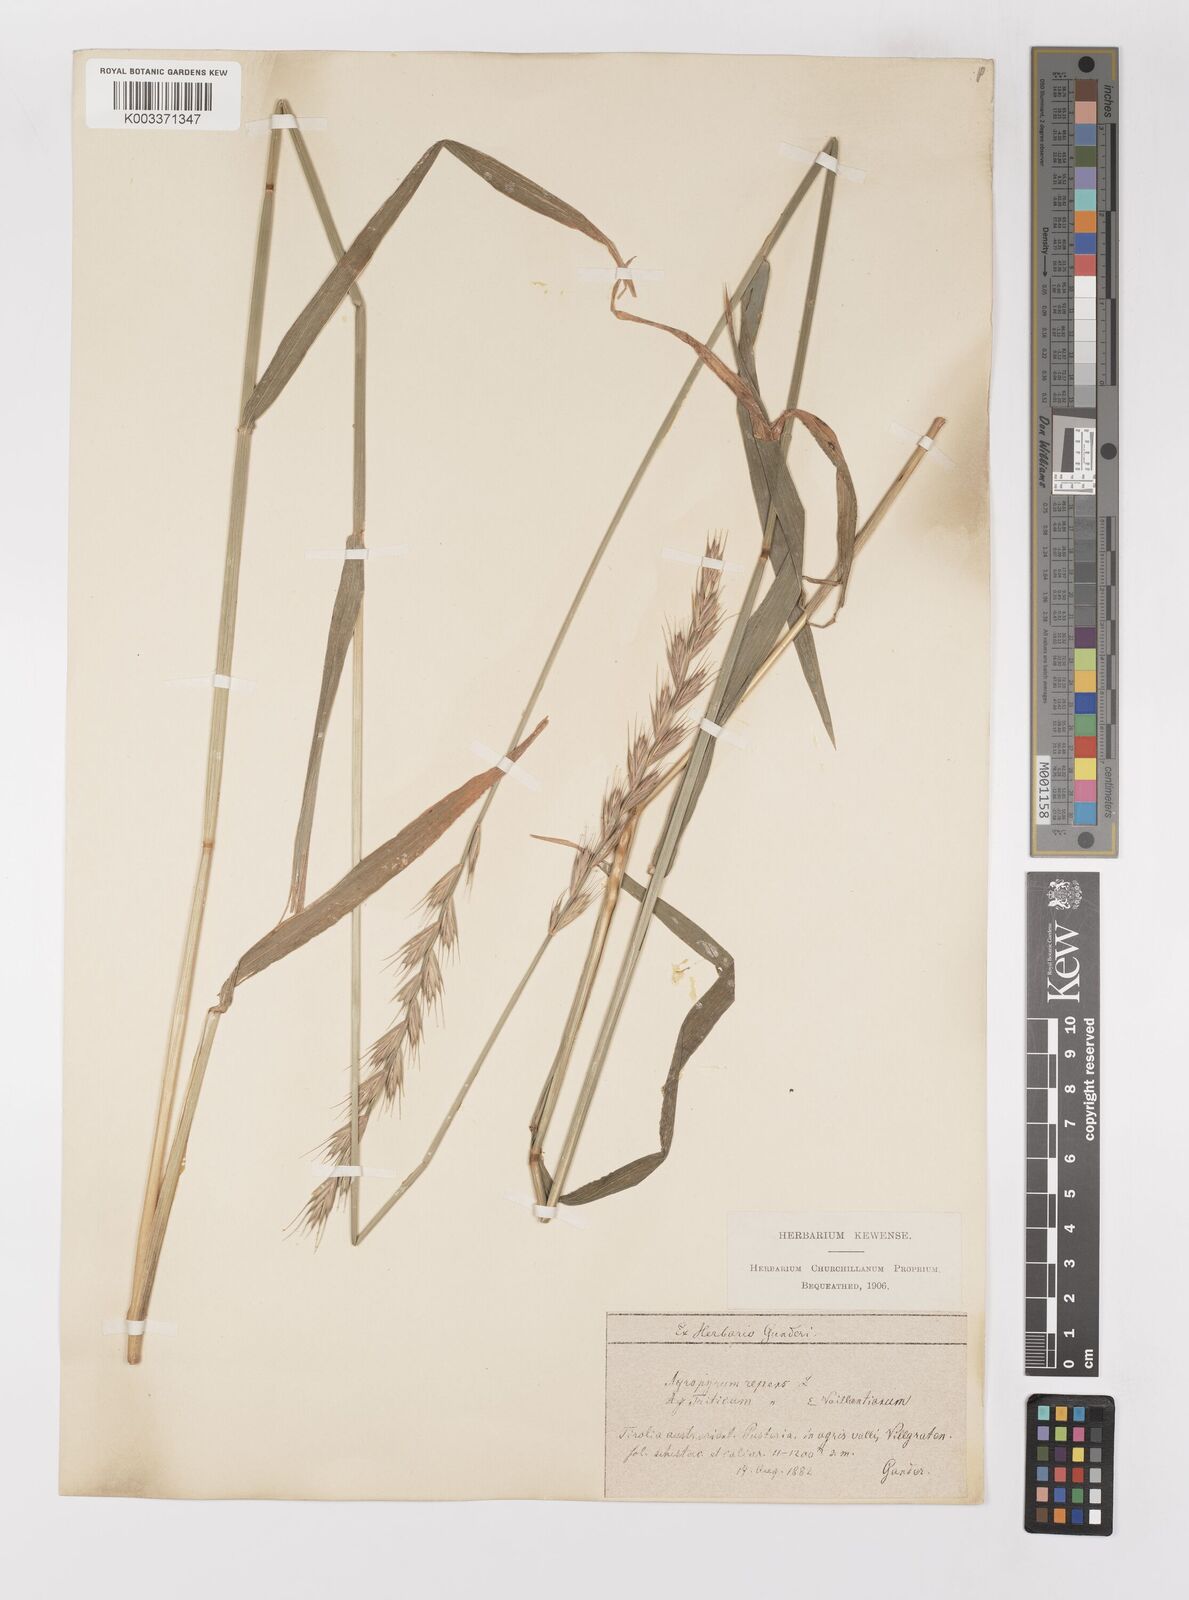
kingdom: Plantae
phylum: Tracheophyta
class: Liliopsida
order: Poales
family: Poaceae
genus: Elymus
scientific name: Elymus repens
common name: Quackgrass
